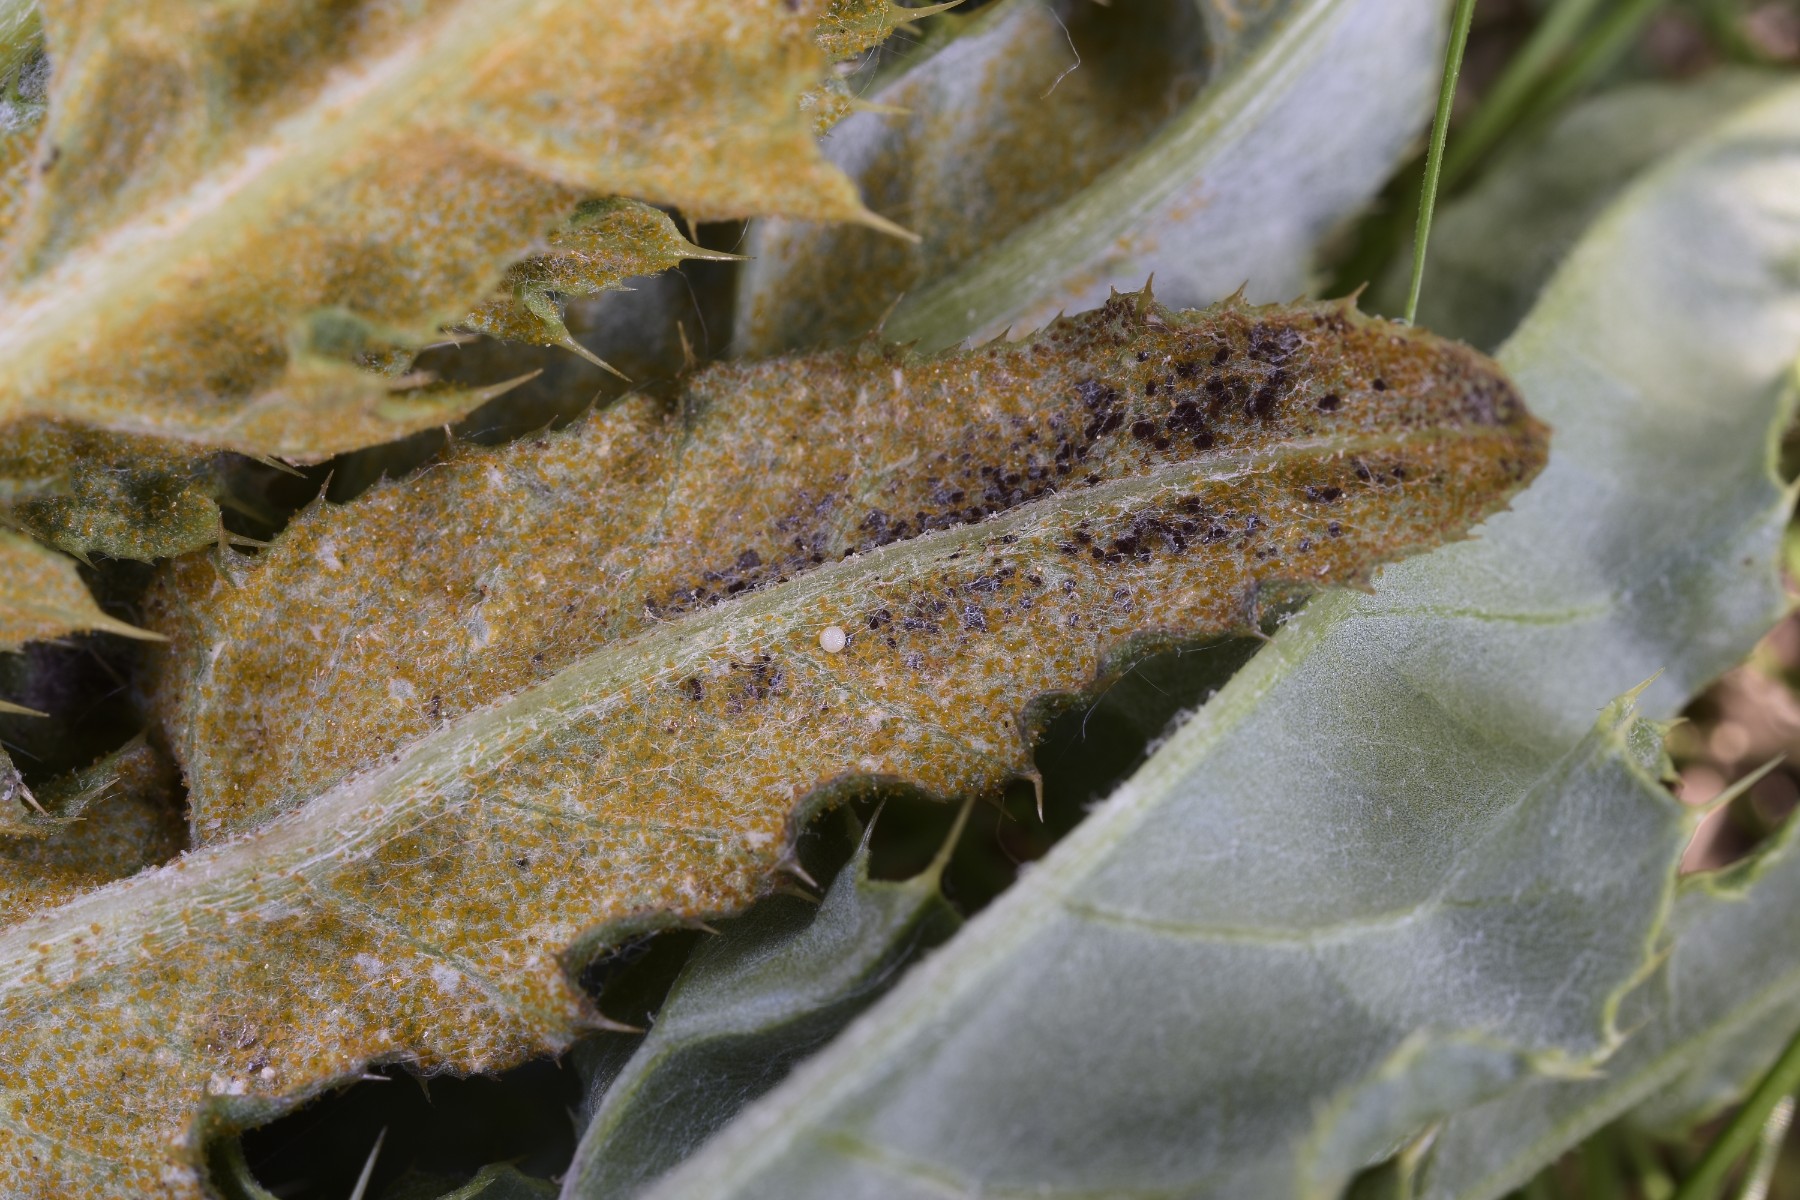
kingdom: Fungi
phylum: Basidiomycota
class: Pucciniomycetes
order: Pucciniales
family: Pucciniaceae
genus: Puccinia
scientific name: Puccinia suaveolens
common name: tidsel-tvecellerust
